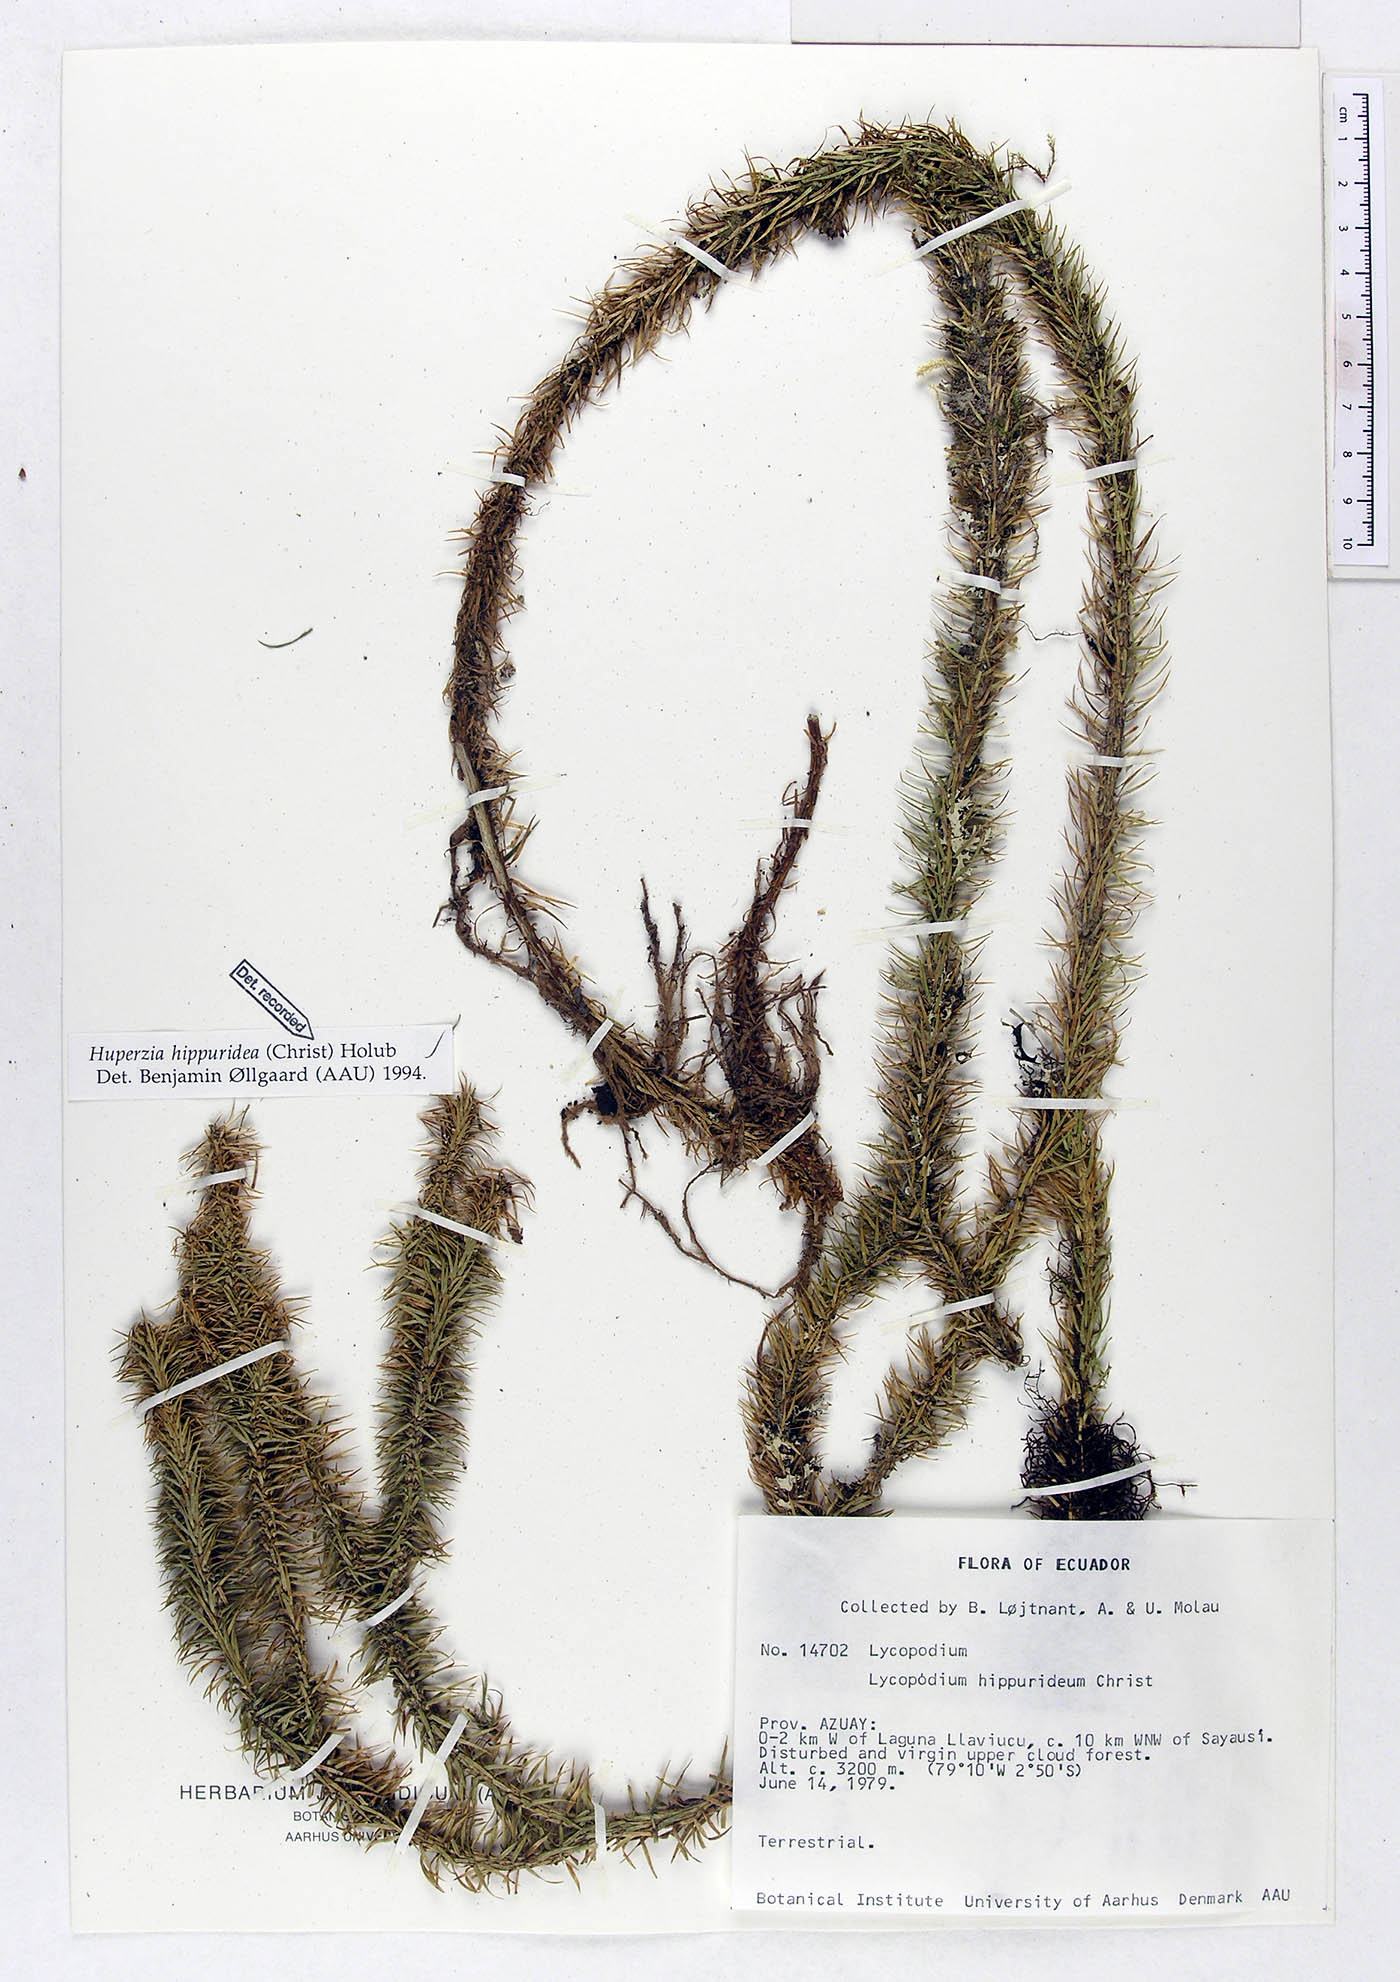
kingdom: Plantae
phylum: Tracheophyta
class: Lycopodiopsida
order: Lycopodiales
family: Lycopodiaceae
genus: Phlegmariurus
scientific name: Phlegmariurus hippurideus
